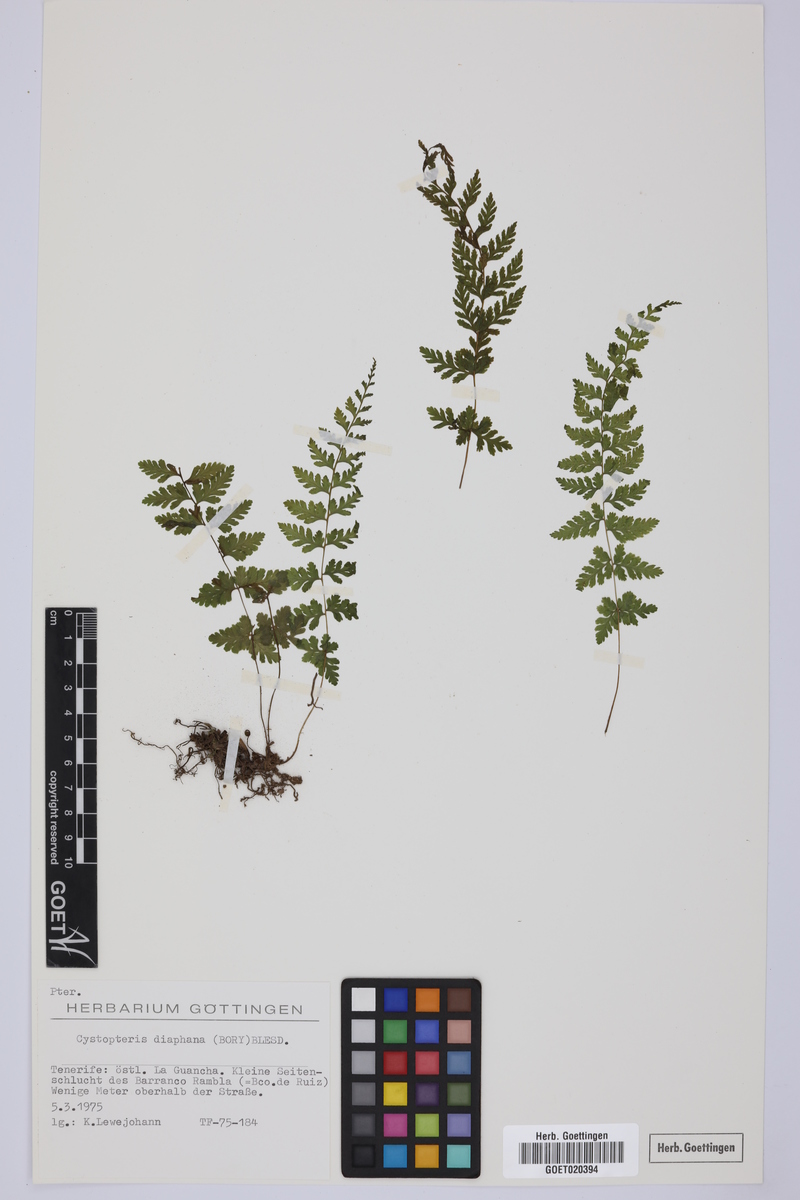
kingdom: Plantae
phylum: Tracheophyta
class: Polypodiopsida
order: Polypodiales
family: Cystopteridaceae
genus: Cystopteris
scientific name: Cystopteris fragilis
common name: Brittle bladder fern
